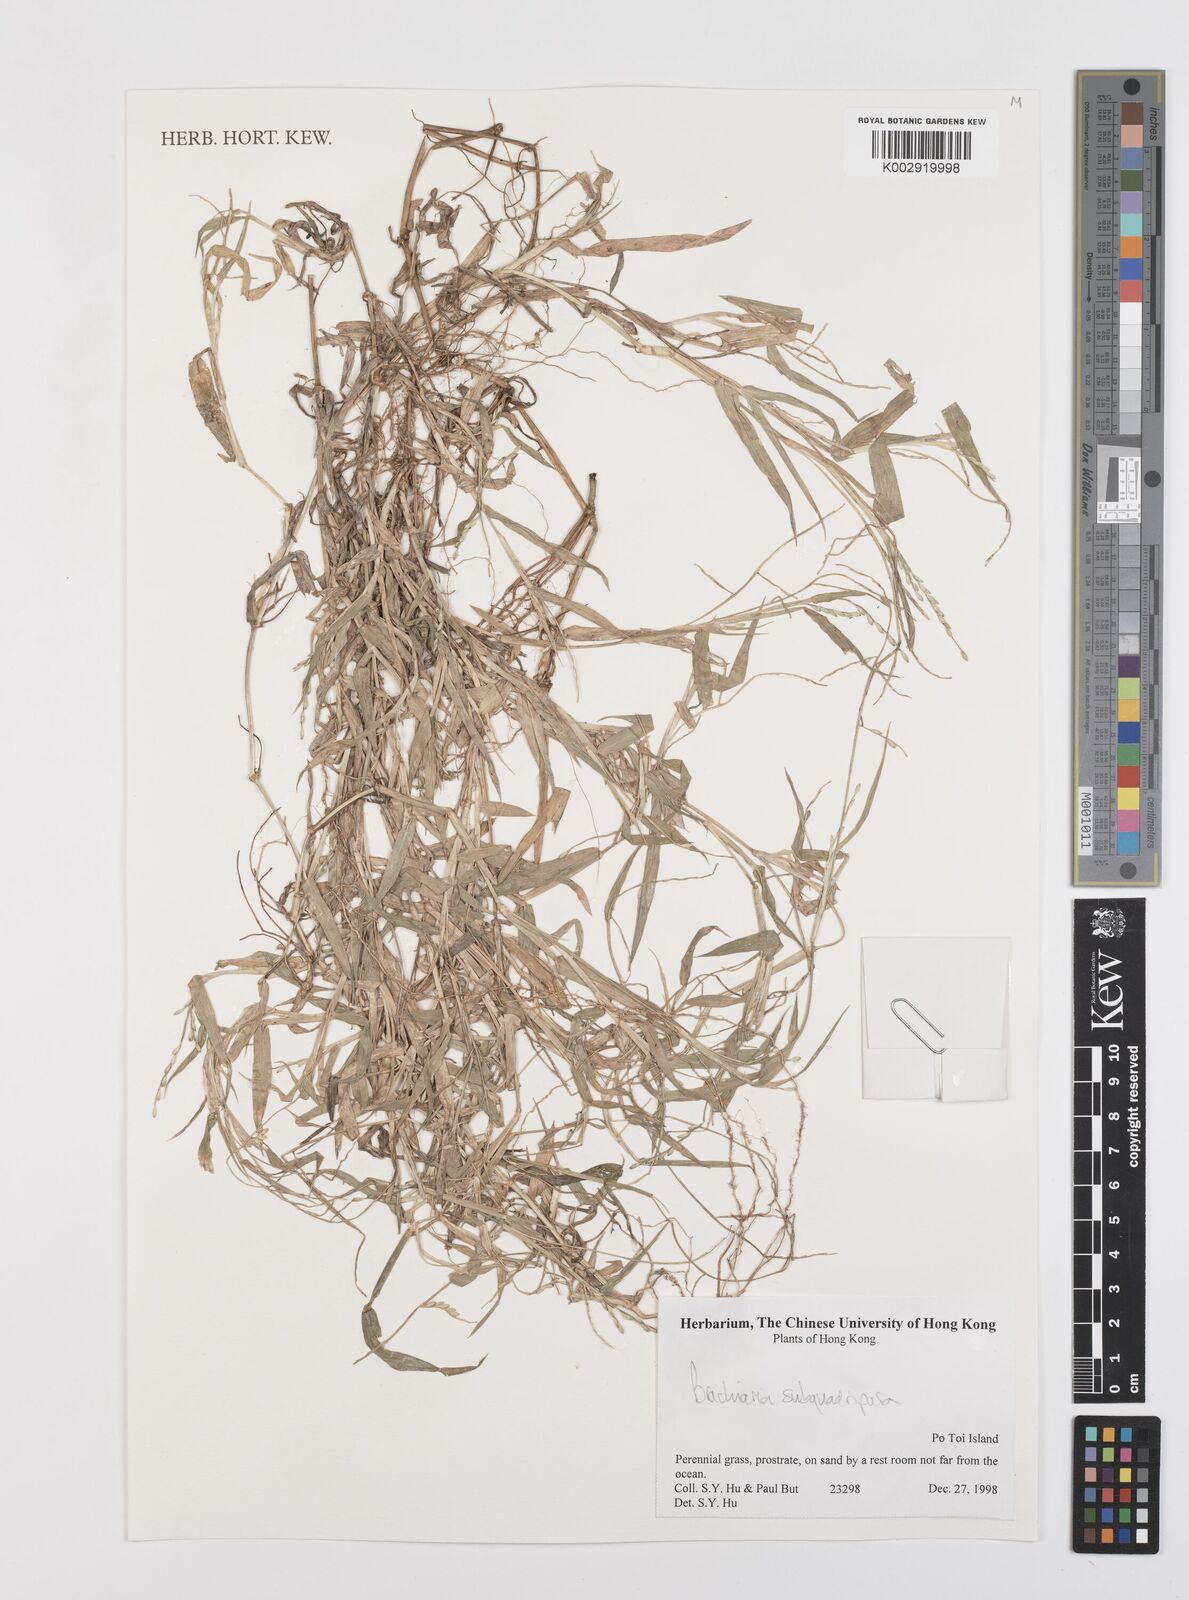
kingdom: Plantae
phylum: Tracheophyta
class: Liliopsida
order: Poales
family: Poaceae
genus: Urochloa
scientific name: Urochloa subquadripara
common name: Armgrass millet
